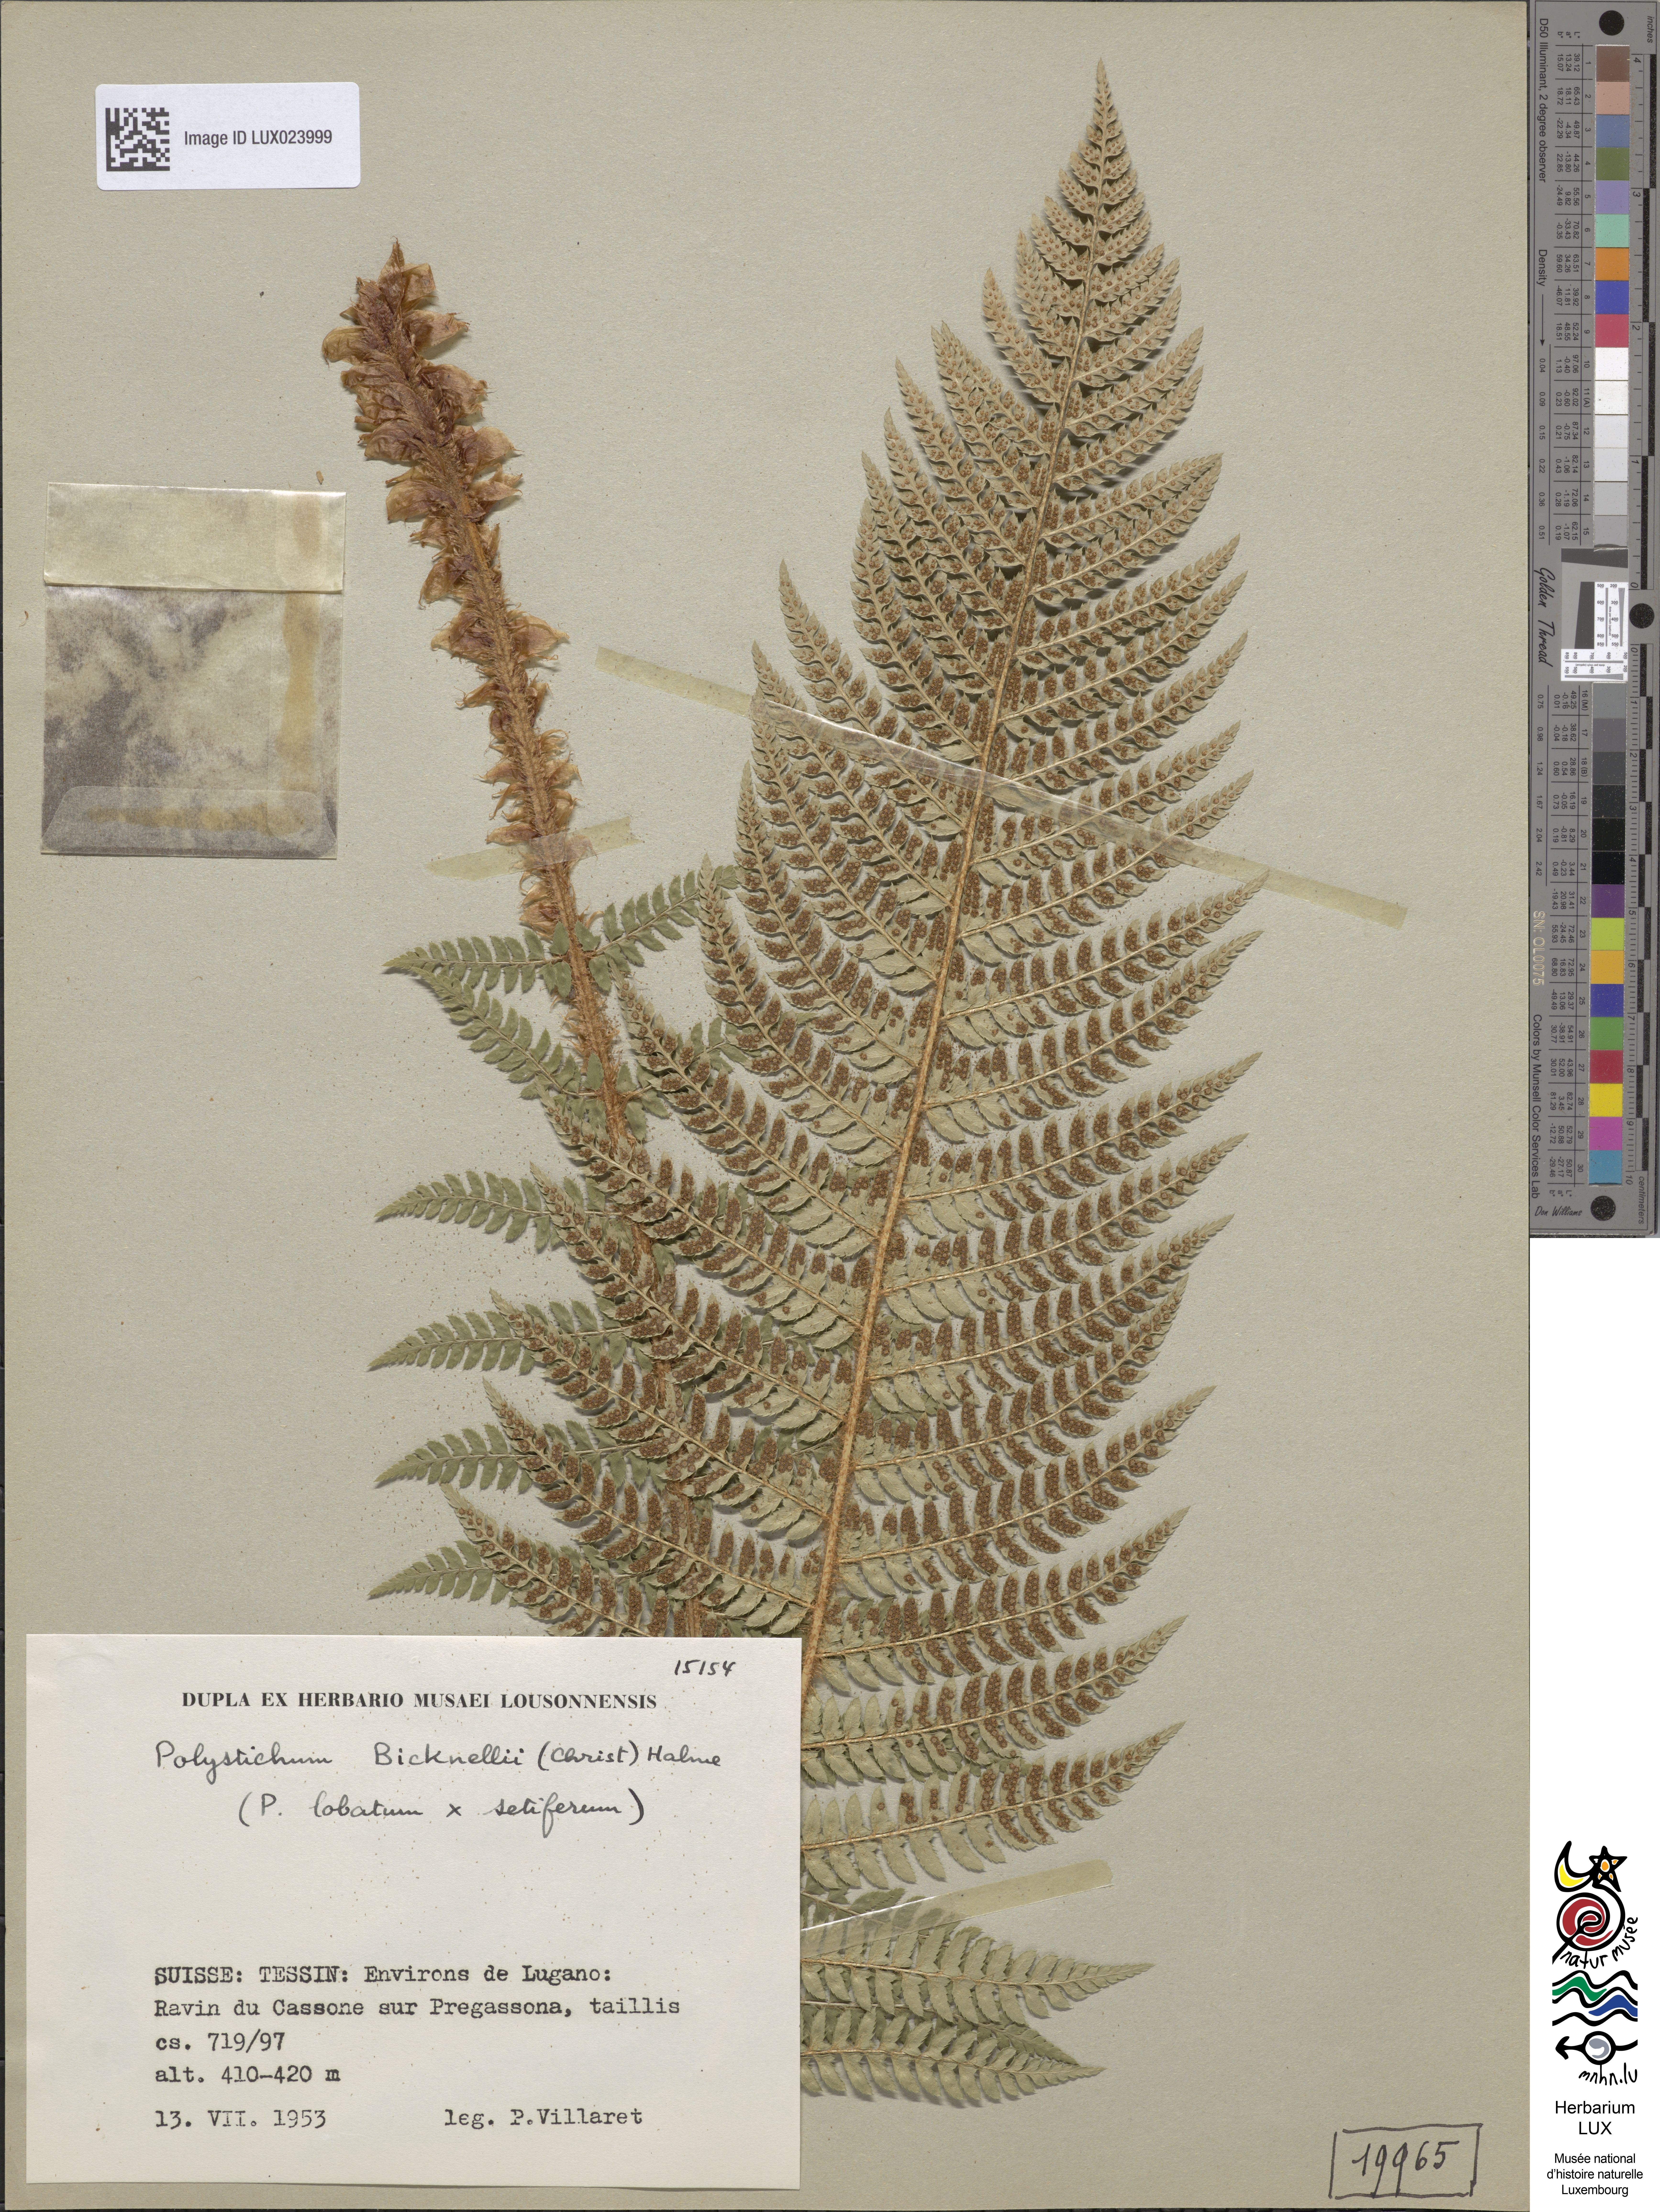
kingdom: Plantae
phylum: Tracheophyta
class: Polypodiopsida
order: Polypodiales
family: Dryopteridaceae
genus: Polystichum
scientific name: Polystichum
